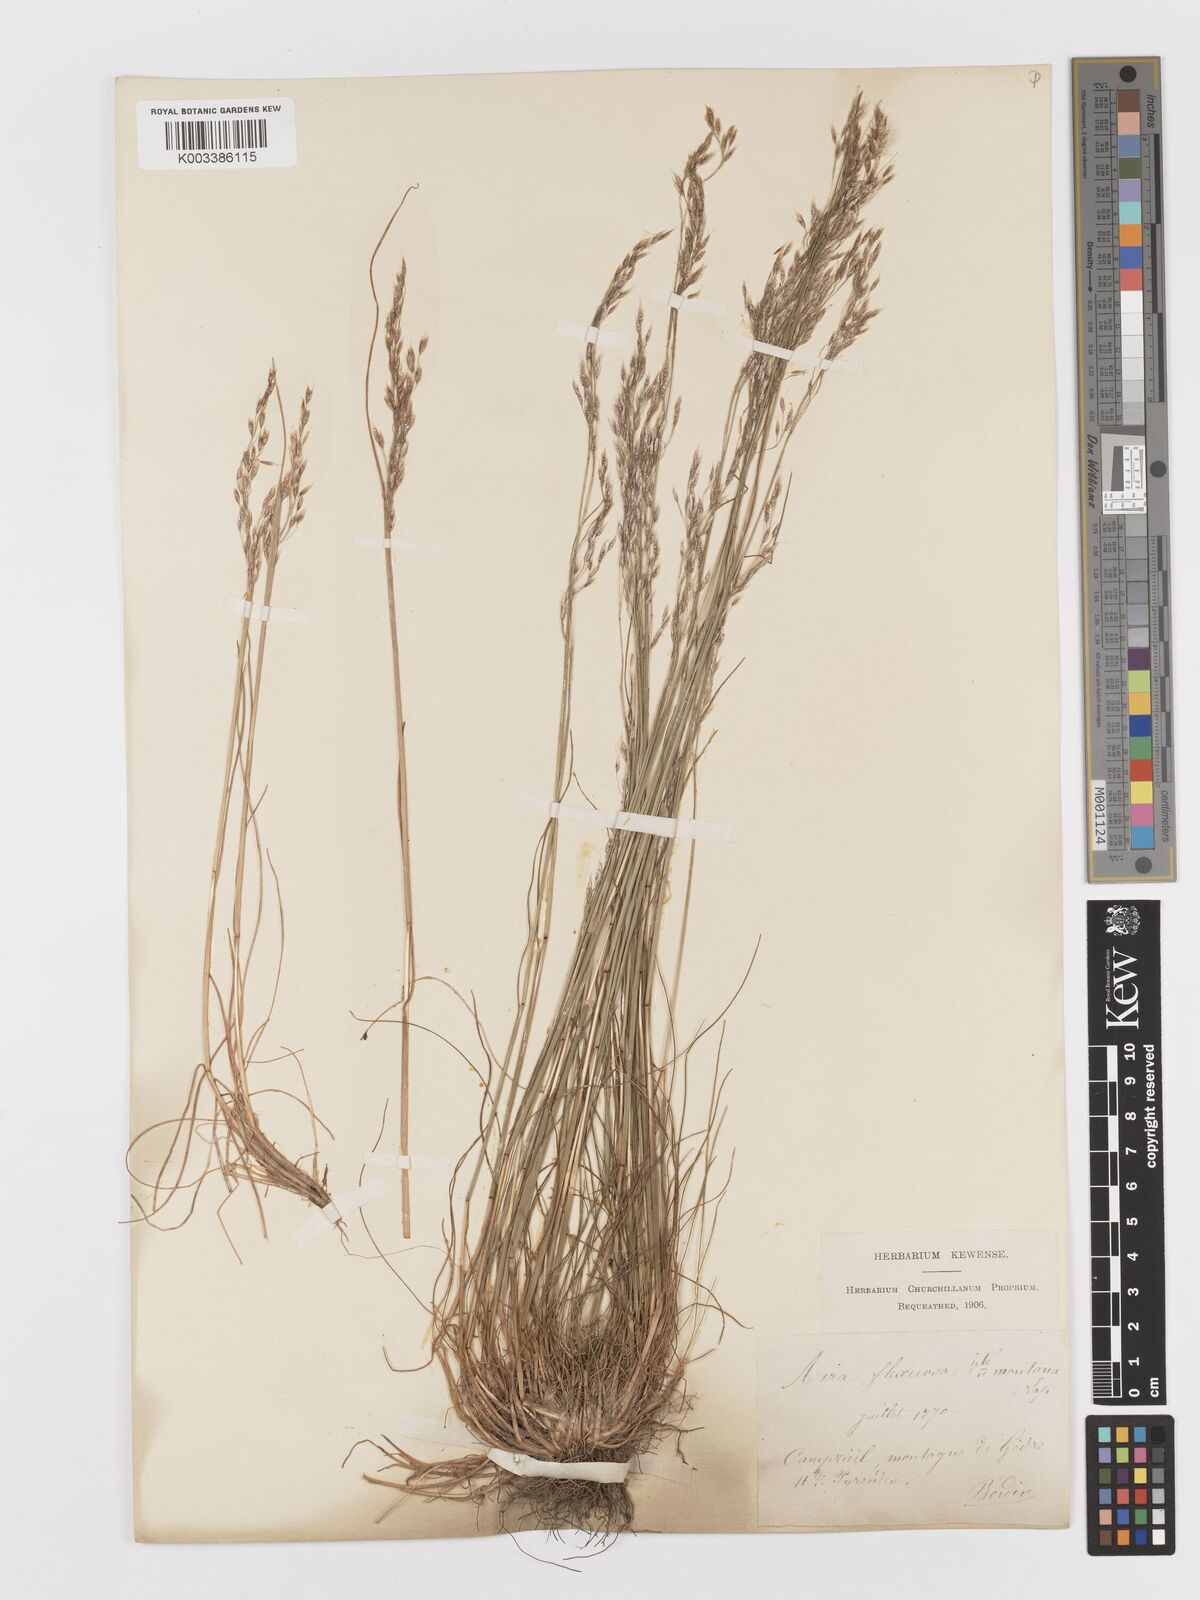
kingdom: Plantae
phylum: Tracheophyta
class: Liliopsida
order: Poales
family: Poaceae
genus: Avenella
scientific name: Avenella flexuosa
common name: Wavy hairgrass
